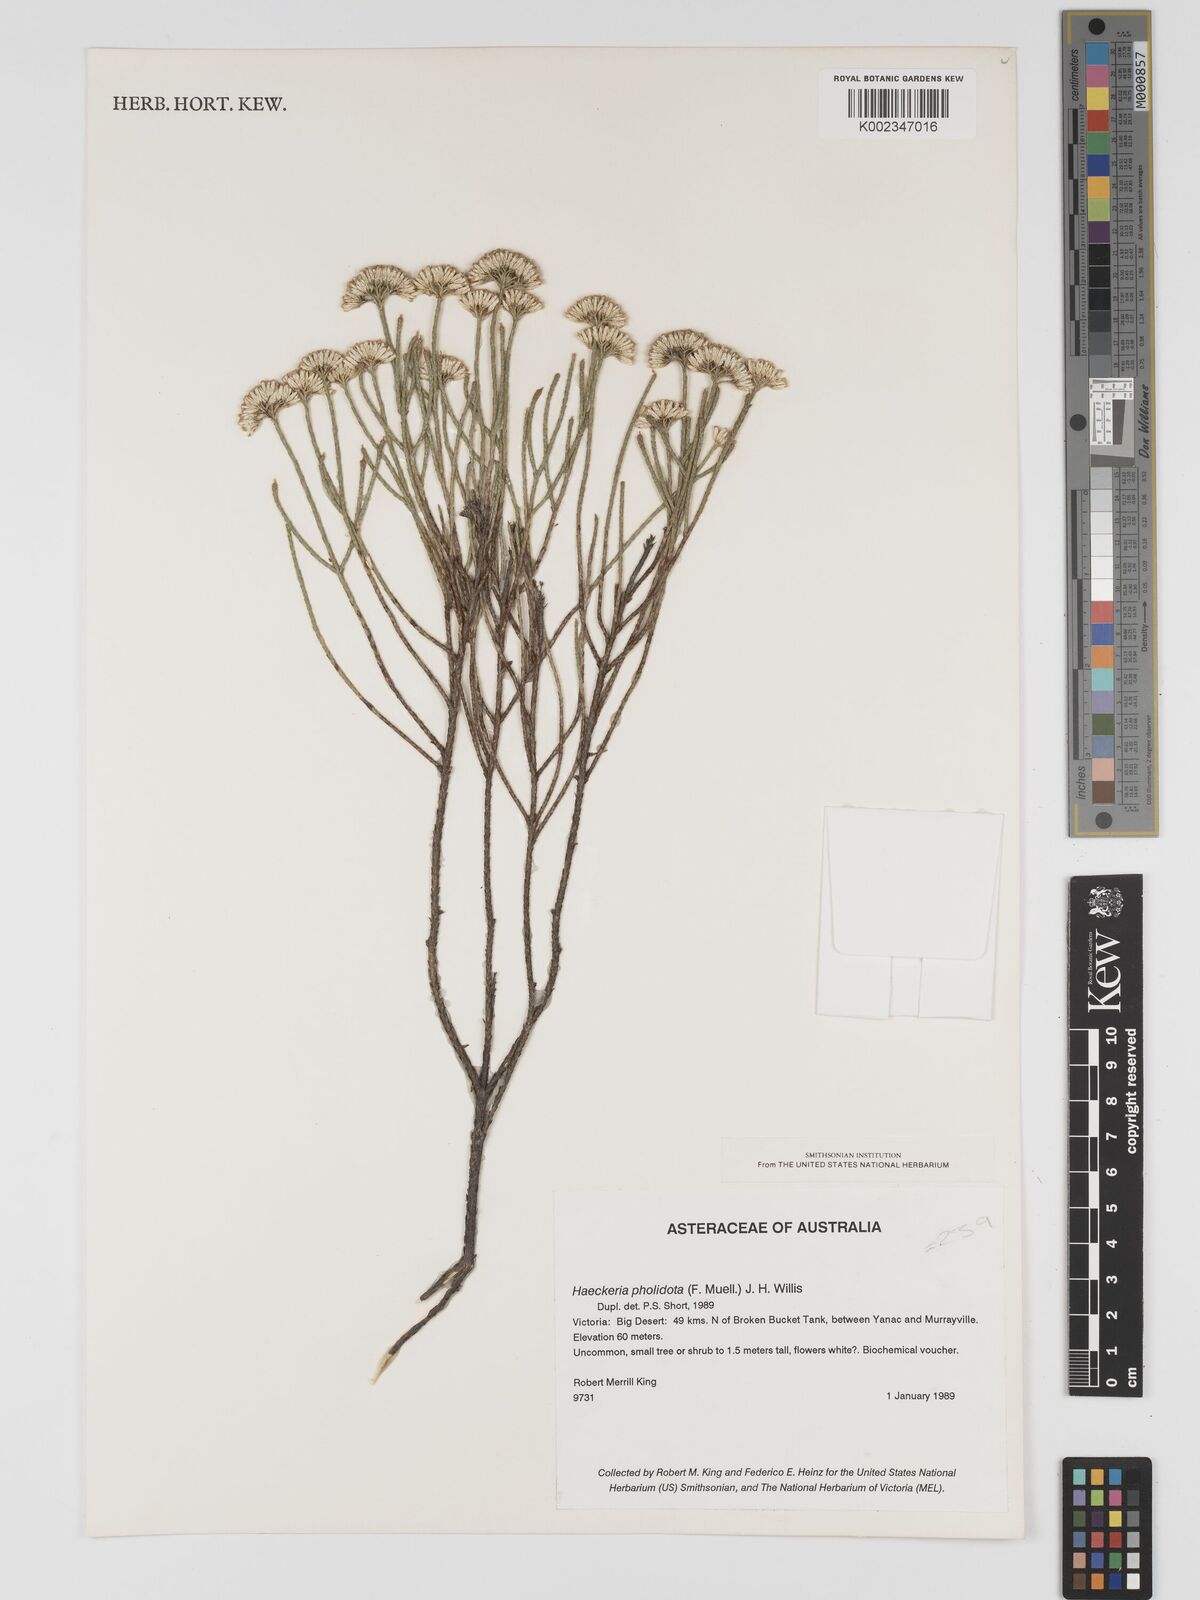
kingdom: Plantae
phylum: Tracheophyta
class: Magnoliopsida
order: Asterales
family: Asteraceae
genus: Haeckeria
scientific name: Haeckeria pholidota
